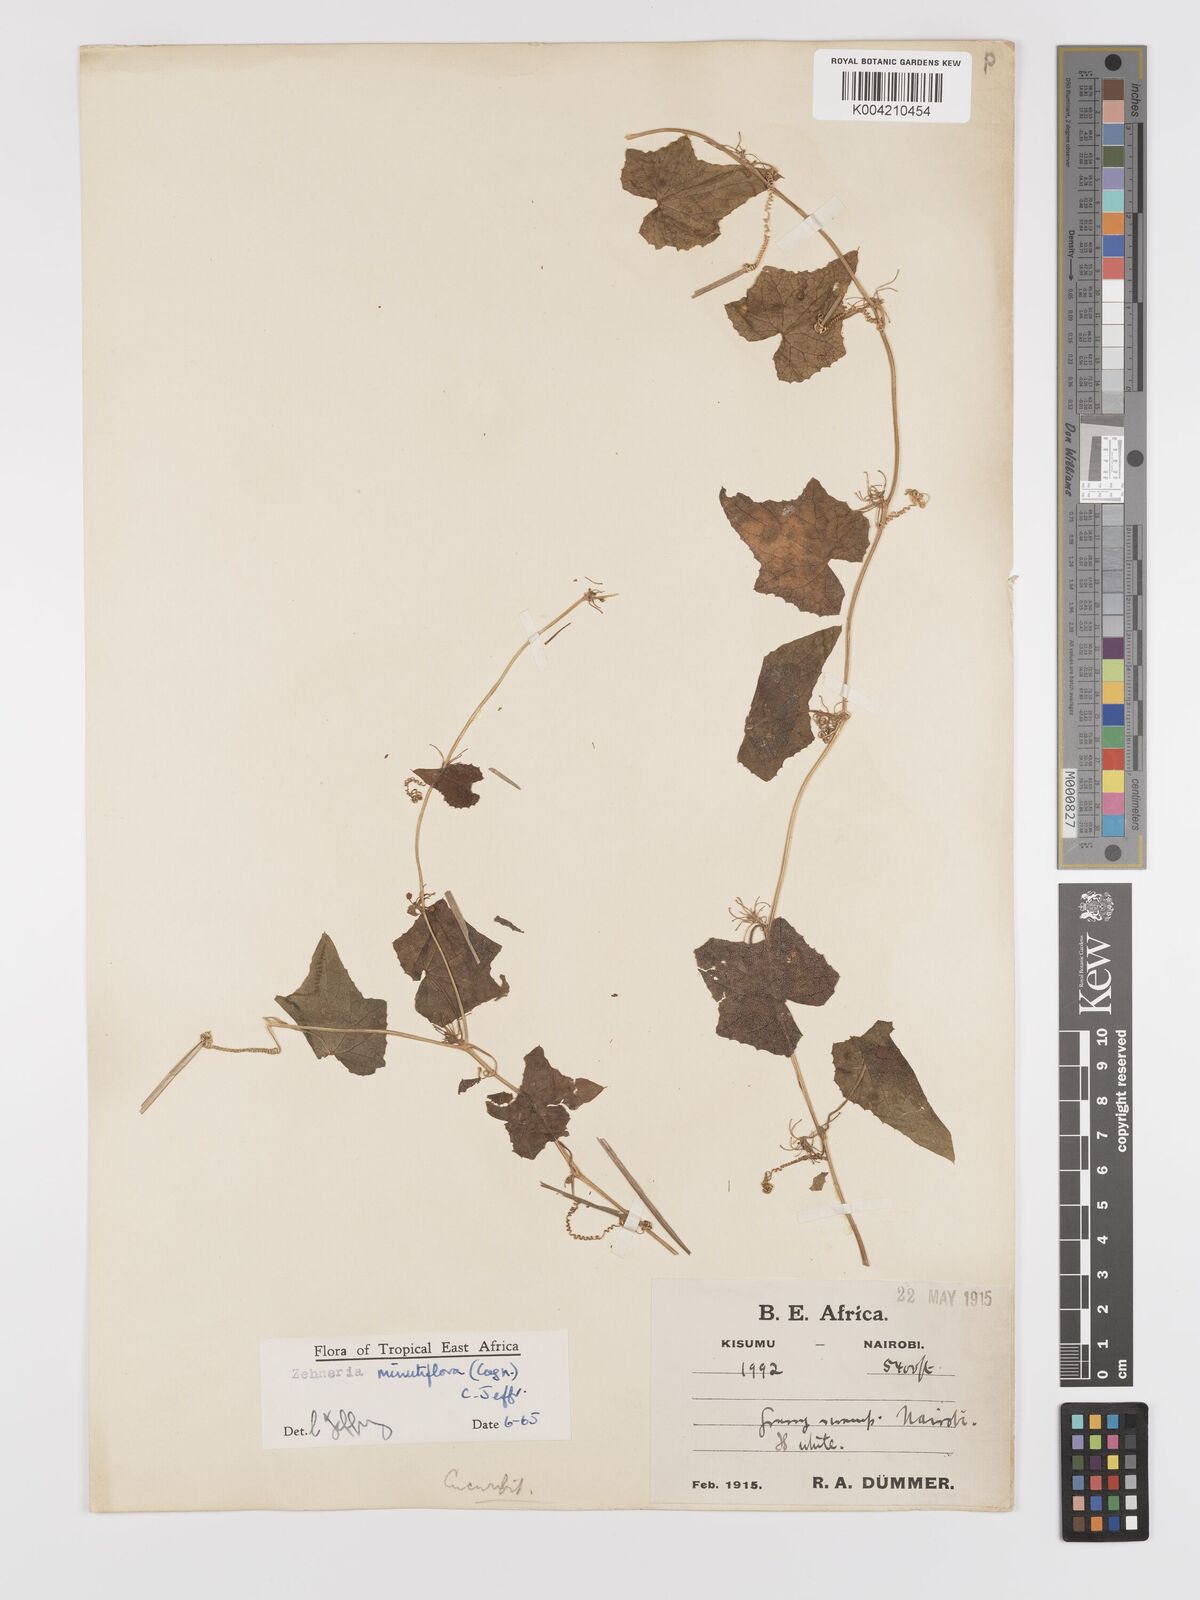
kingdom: Plantae
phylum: Tracheophyta
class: Magnoliopsida
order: Cucurbitales
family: Cucurbitaceae
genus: Zehneria
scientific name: Zehneria minutiflora
